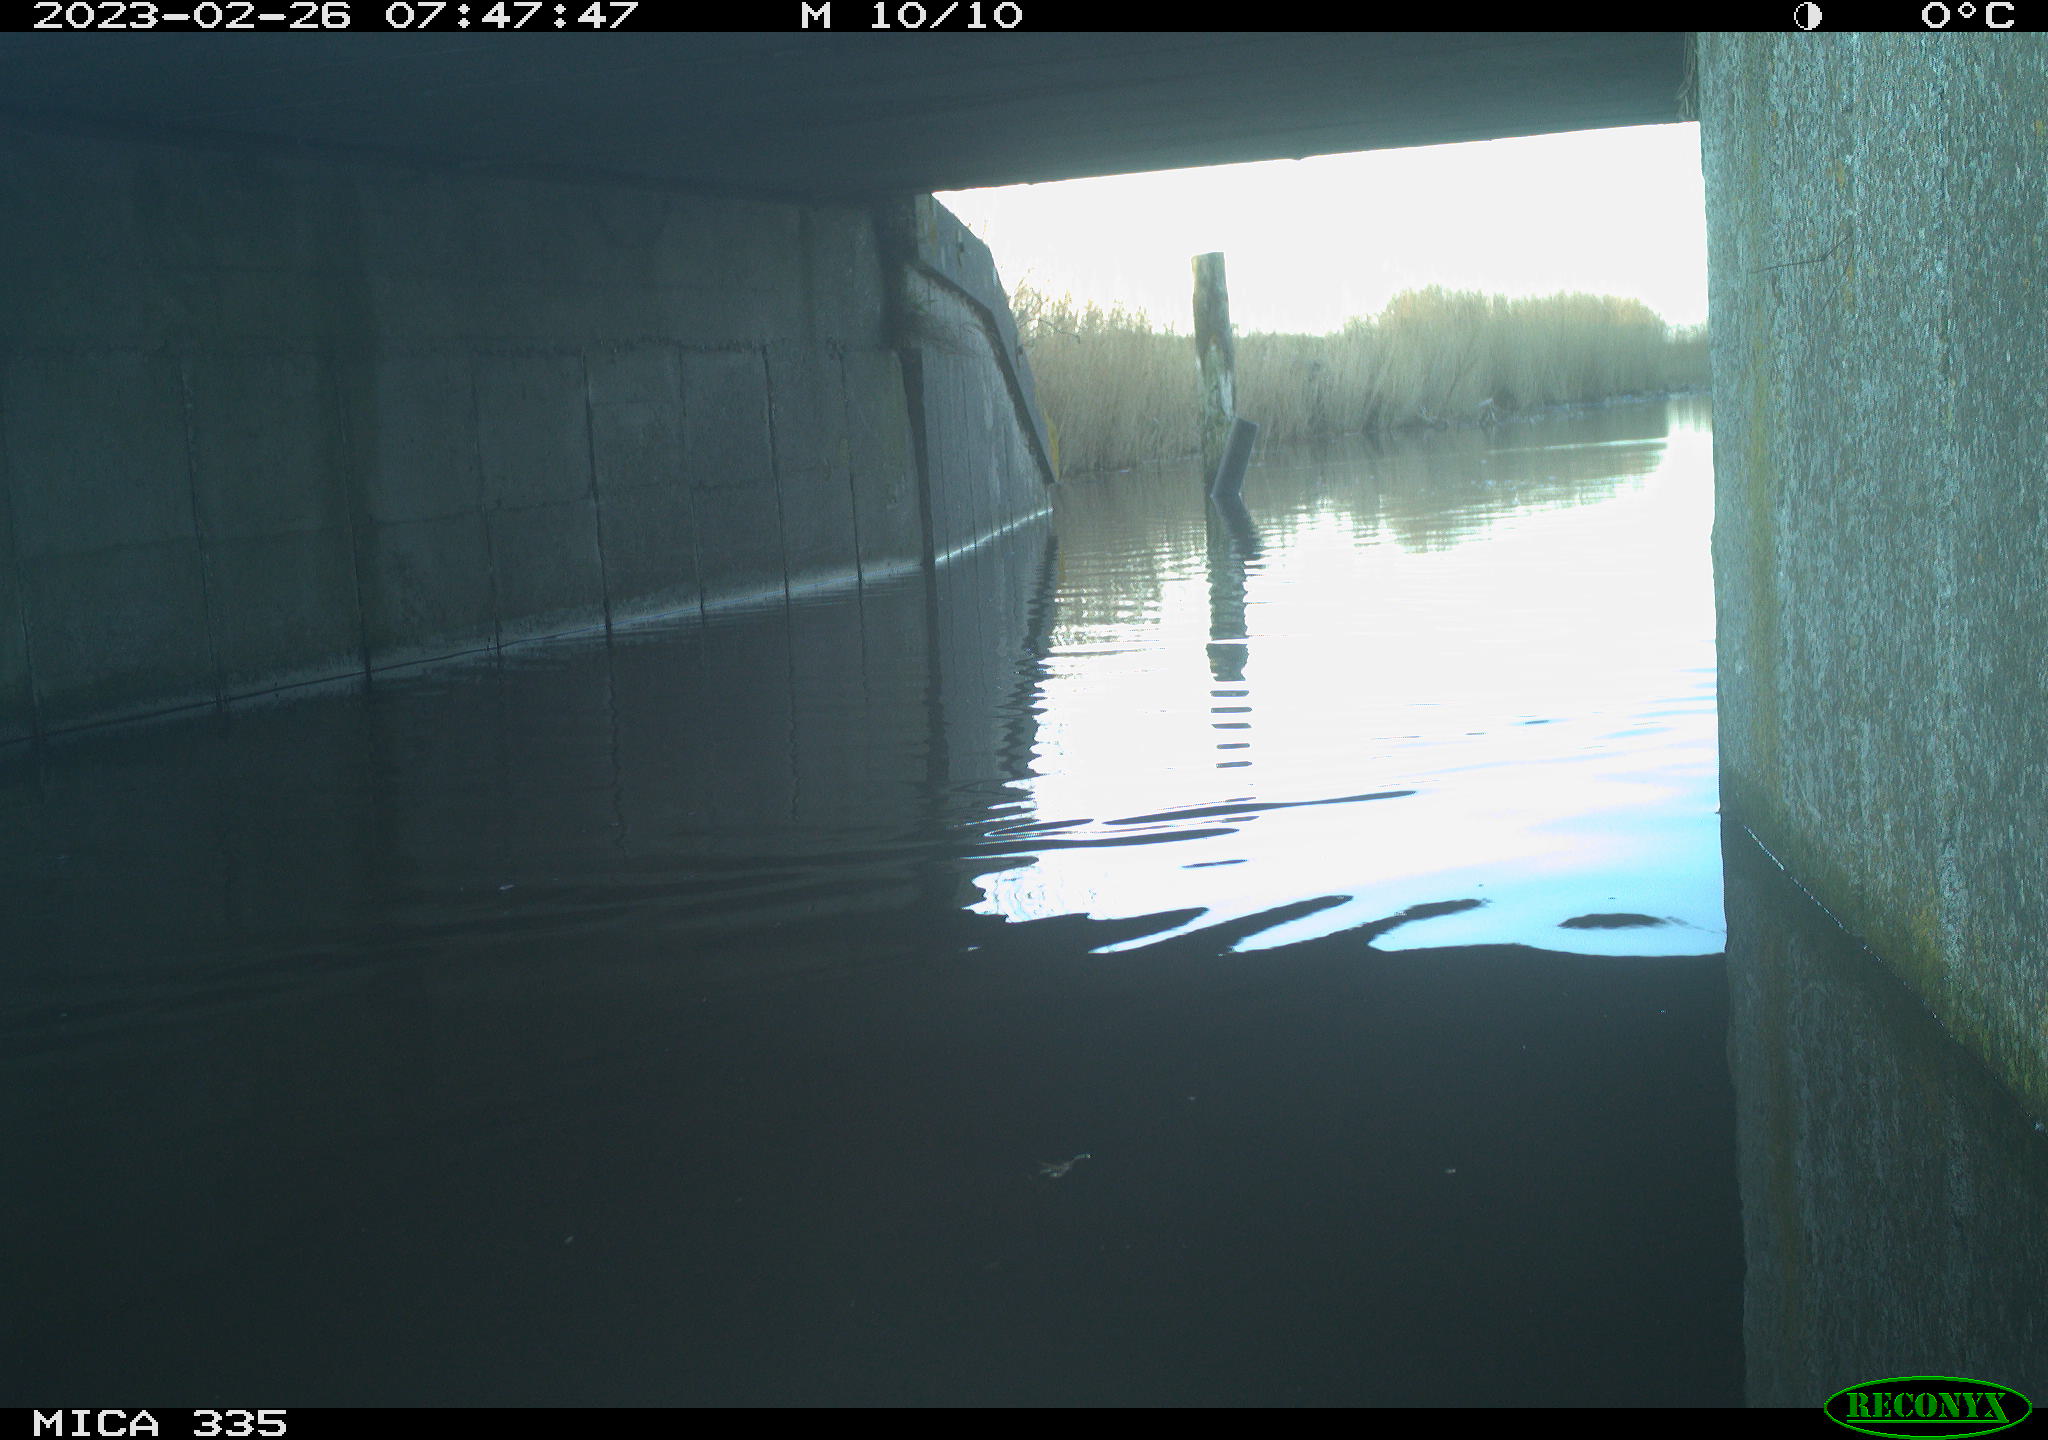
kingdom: Animalia
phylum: Chordata
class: Aves
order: Gruiformes
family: Rallidae
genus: Fulica
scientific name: Fulica atra
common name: Eurasian coot
